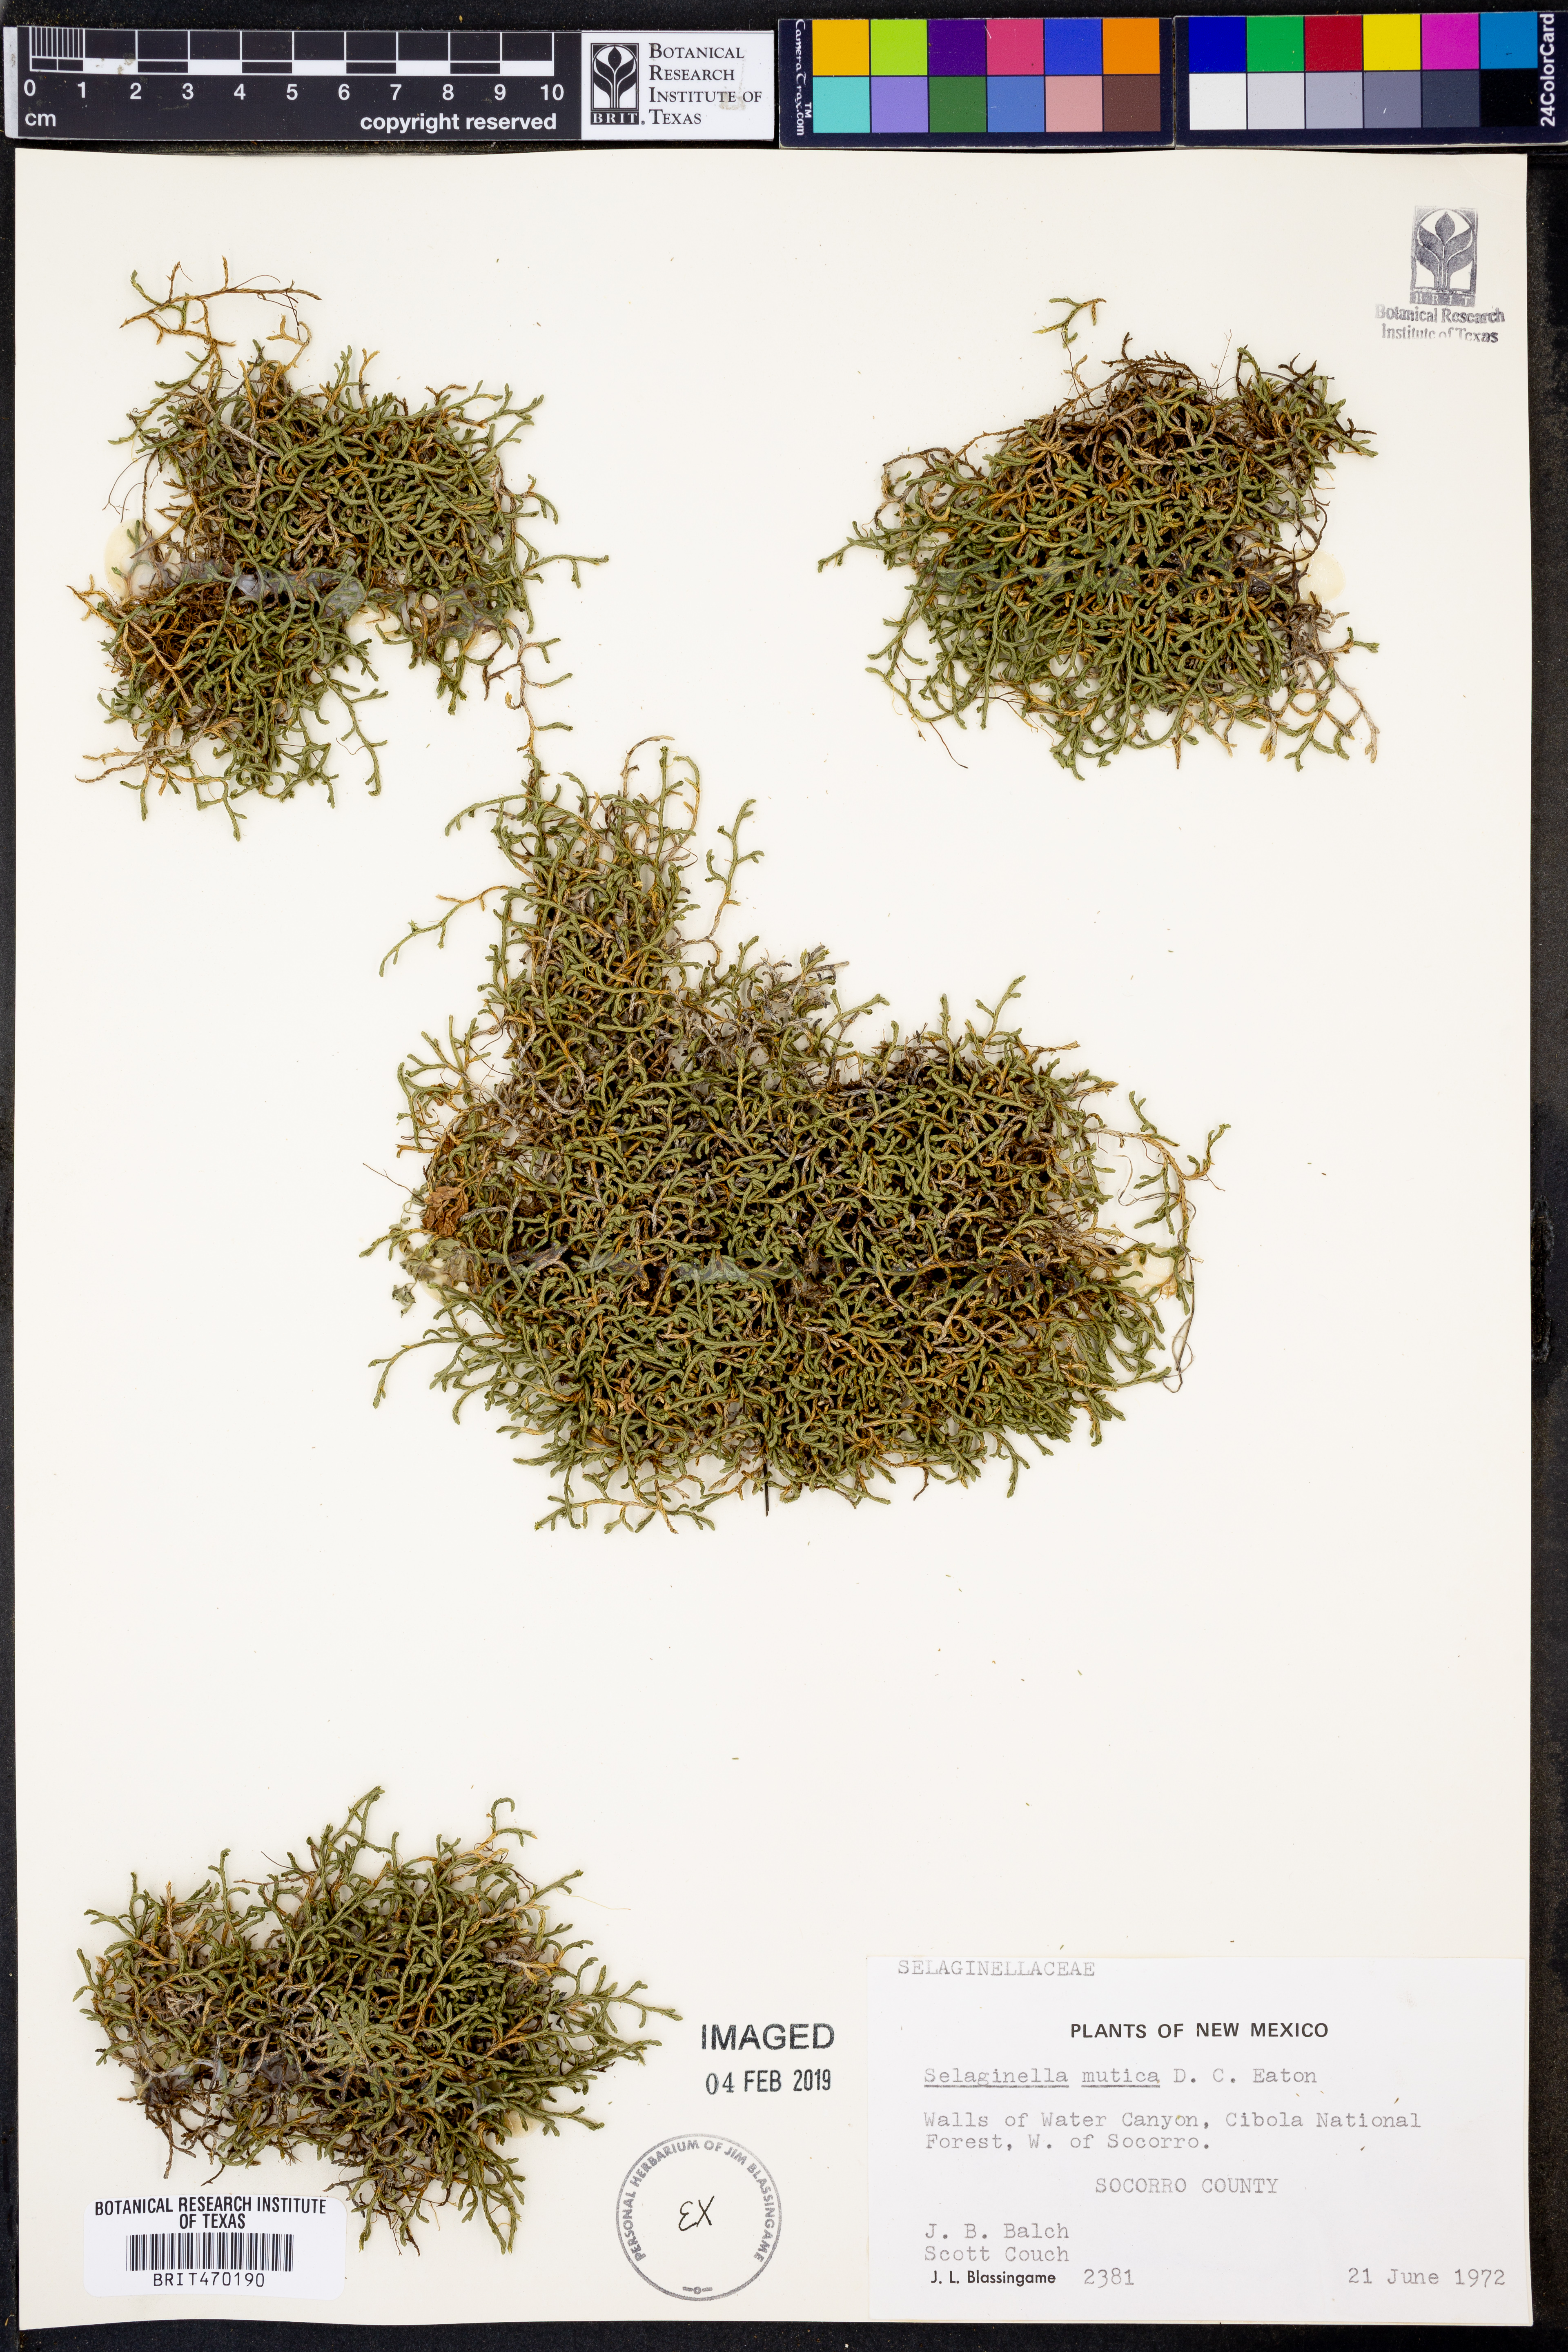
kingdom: Plantae
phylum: Tracheophyta
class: Lycopodiopsida
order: Selaginellales
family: Selaginellaceae
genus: Selaginella
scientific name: Selaginella mutica
